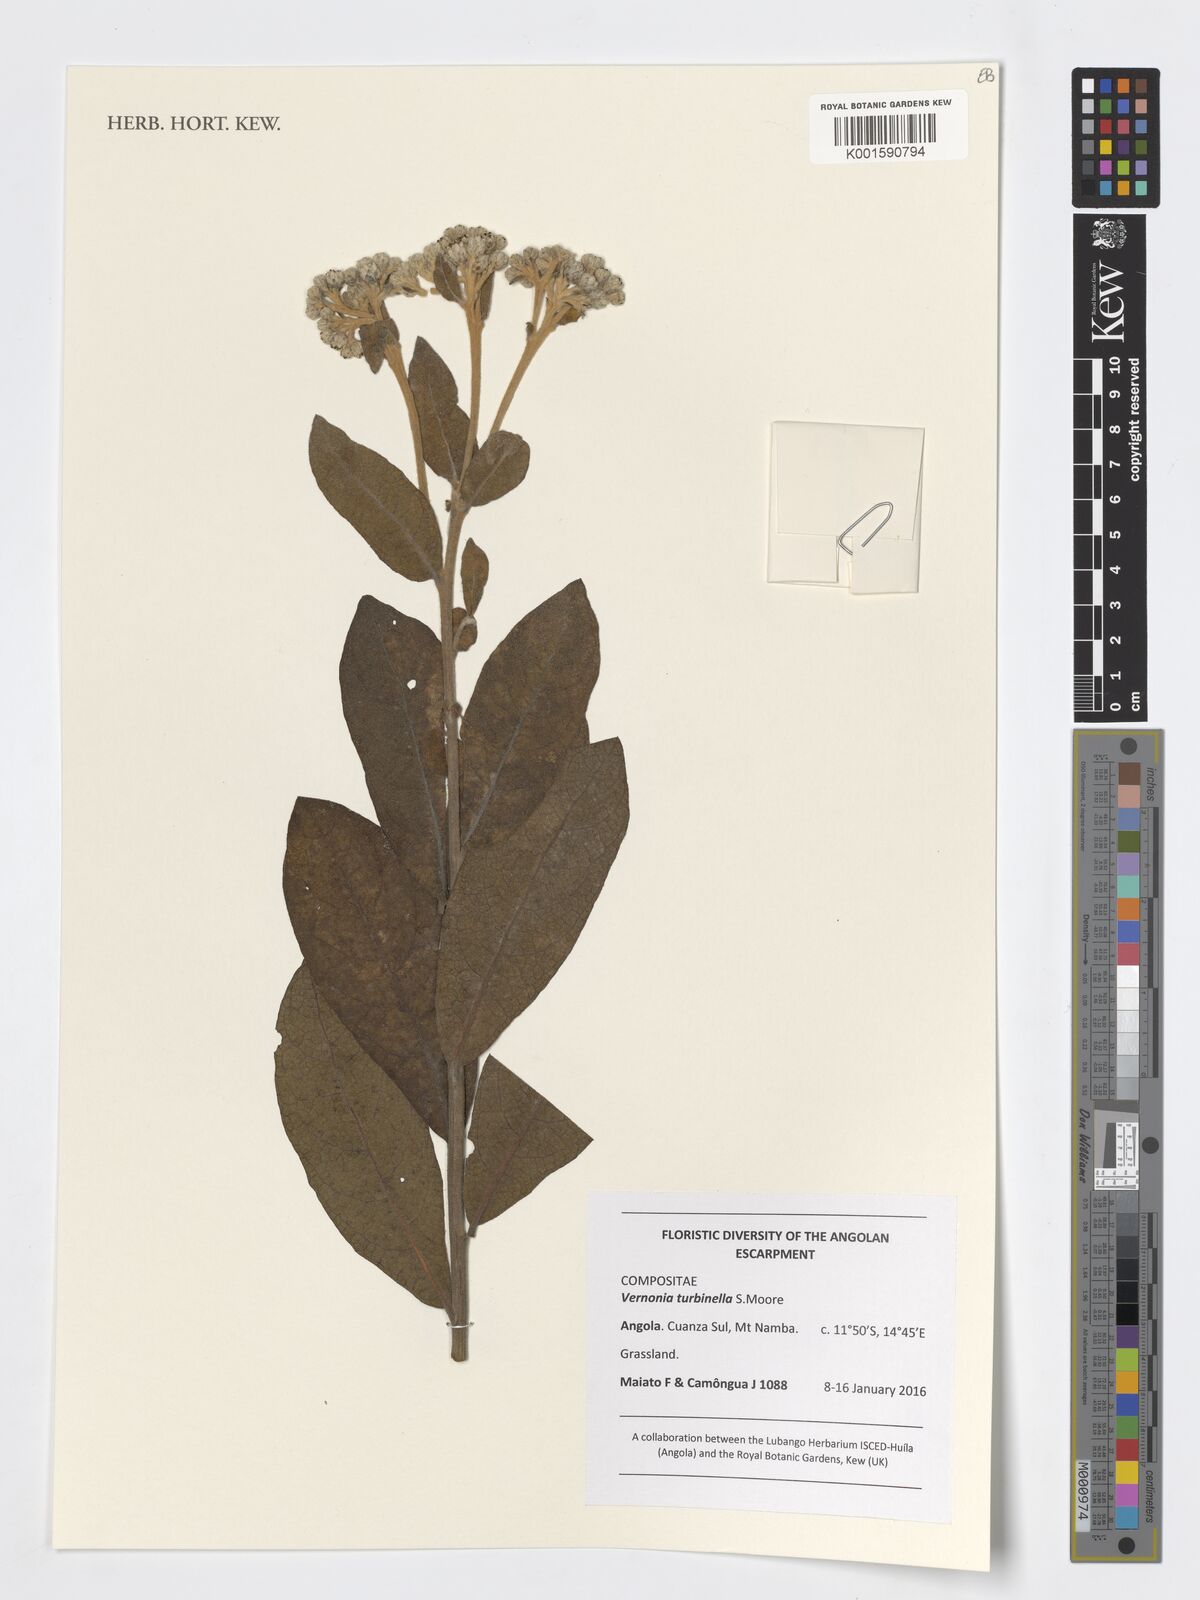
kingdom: Plantae
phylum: Tracheophyta
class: Magnoliopsida
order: Asterales
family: Asteraceae
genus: Lampropappus
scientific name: Lampropappus turbinellus
